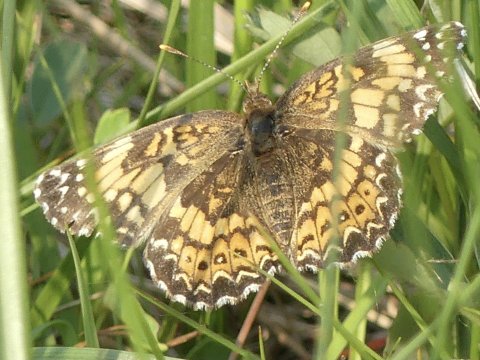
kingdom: Animalia
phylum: Arthropoda
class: Insecta
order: Lepidoptera
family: Nymphalidae
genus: Chlosyne
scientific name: Chlosyne gorgone
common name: Gorgone Checkerspot
